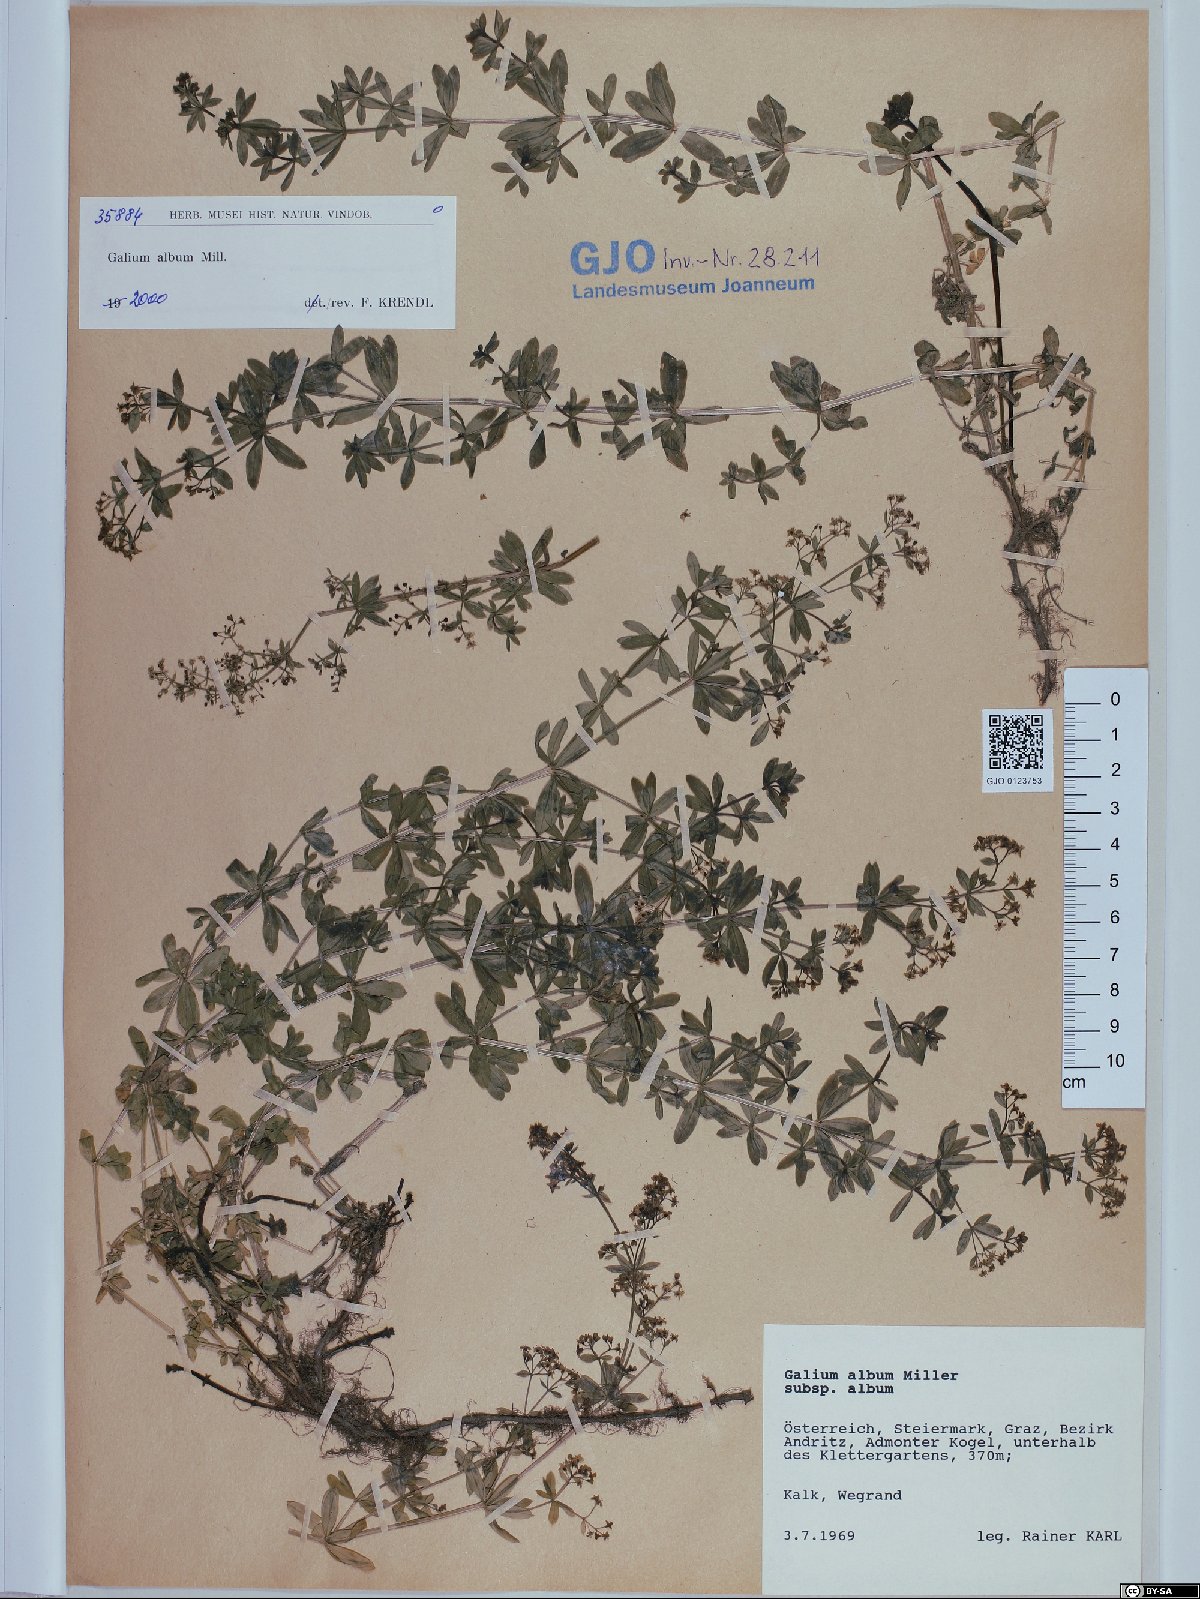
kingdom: Plantae
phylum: Tracheophyta
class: Magnoliopsida
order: Gentianales
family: Rubiaceae
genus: Galium
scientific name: Galium album
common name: White bedstraw
